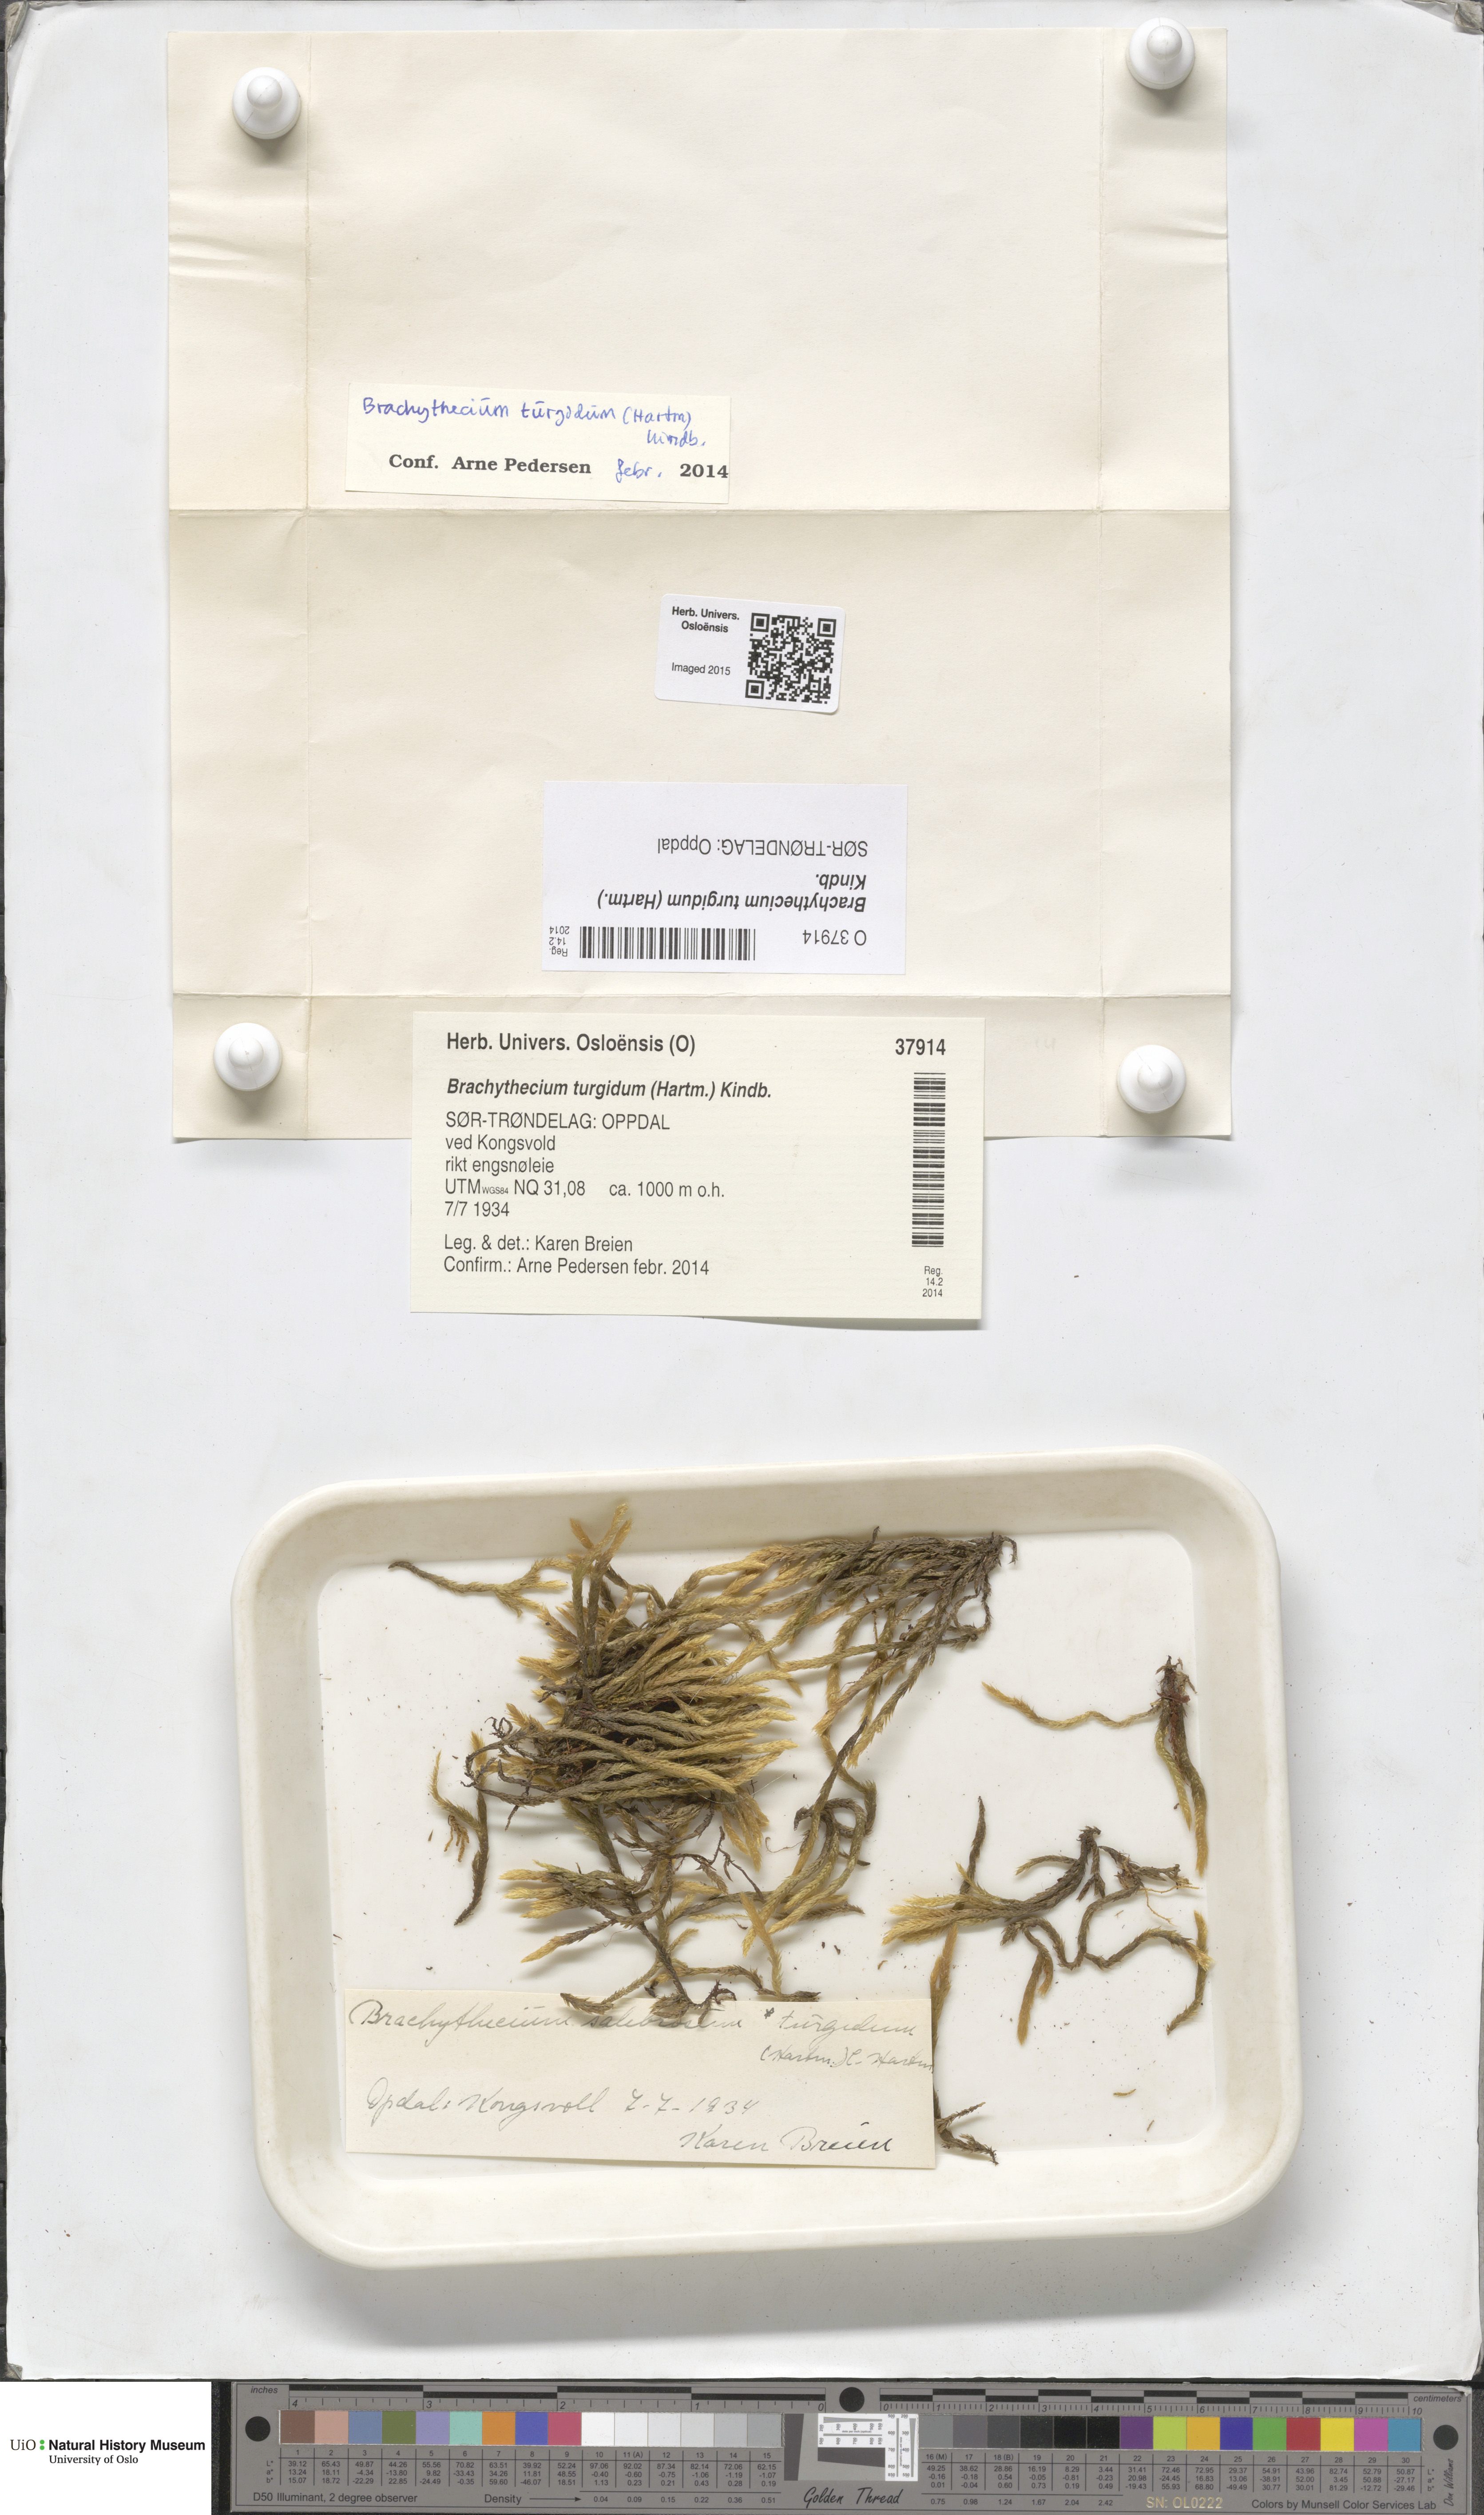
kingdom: Plantae
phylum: Bryophyta
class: Bryopsida
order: Hypnales
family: Brachytheciaceae
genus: Brachythecium
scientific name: Brachythecium turgidum
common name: Thick ragged moss
